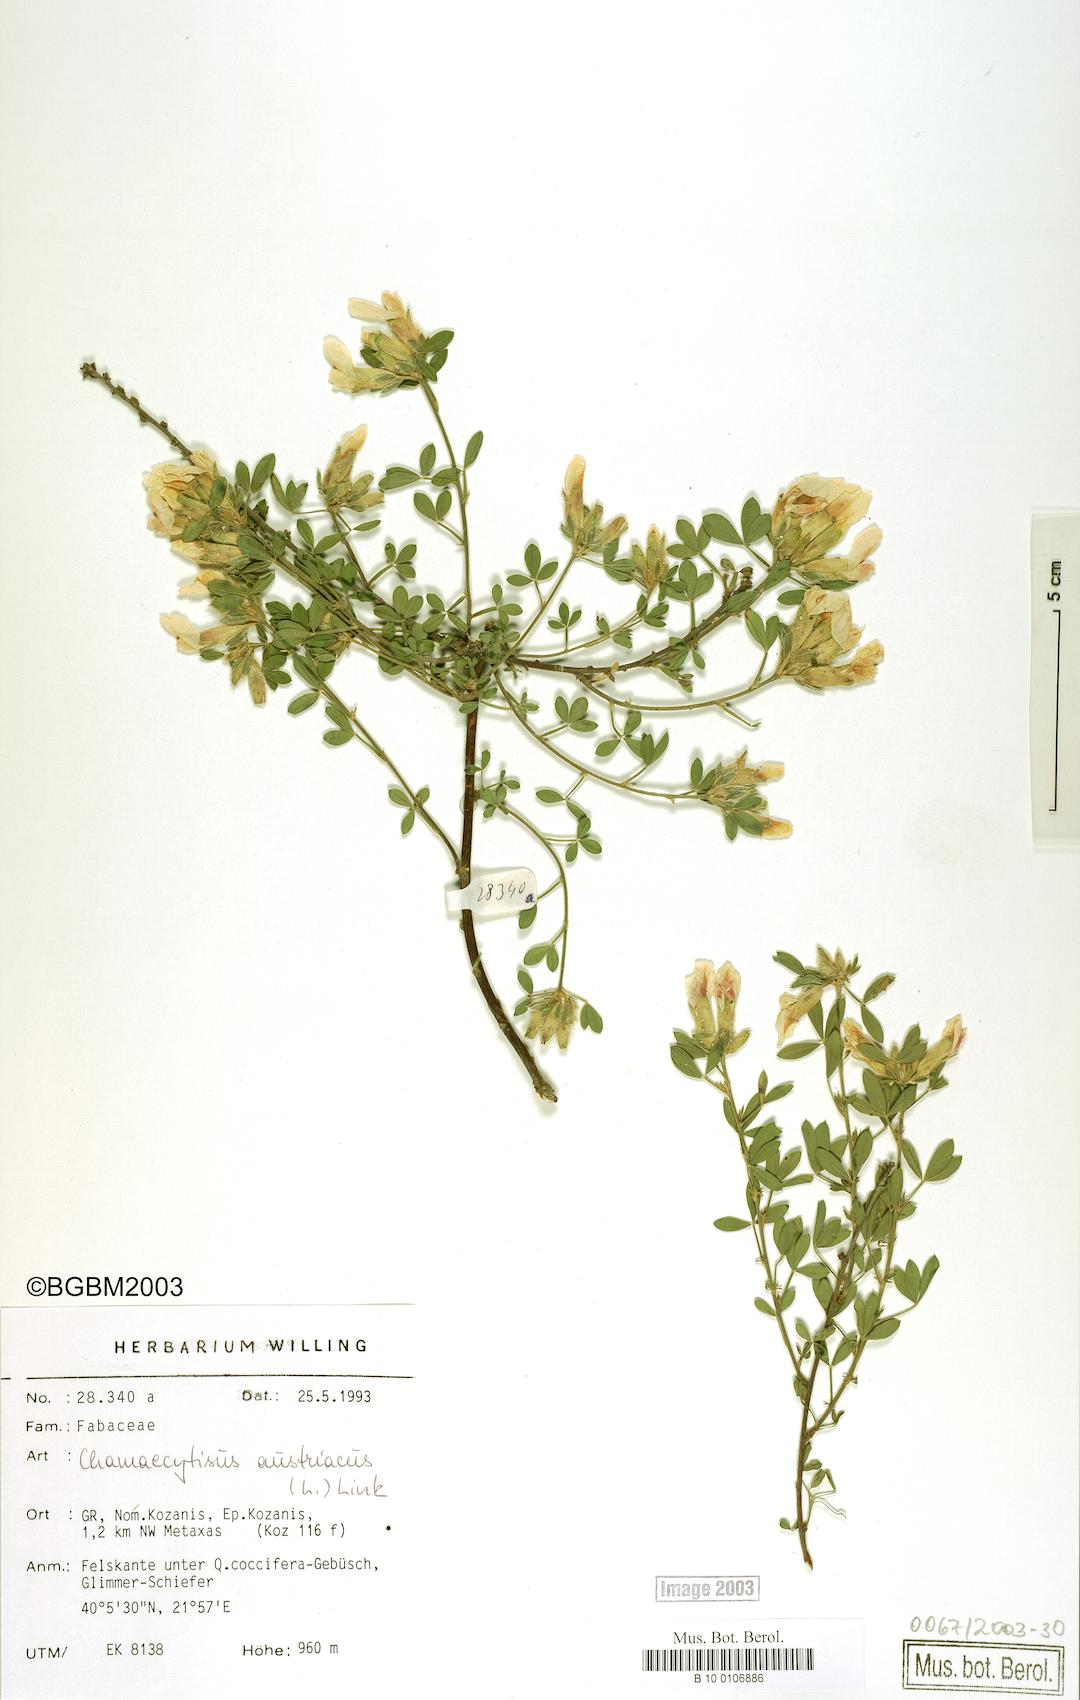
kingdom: Plantae
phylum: Tracheophyta
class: Magnoliopsida
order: Fabales
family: Fabaceae
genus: Chamaecytisus
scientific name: Chamaecytisus austriacus
